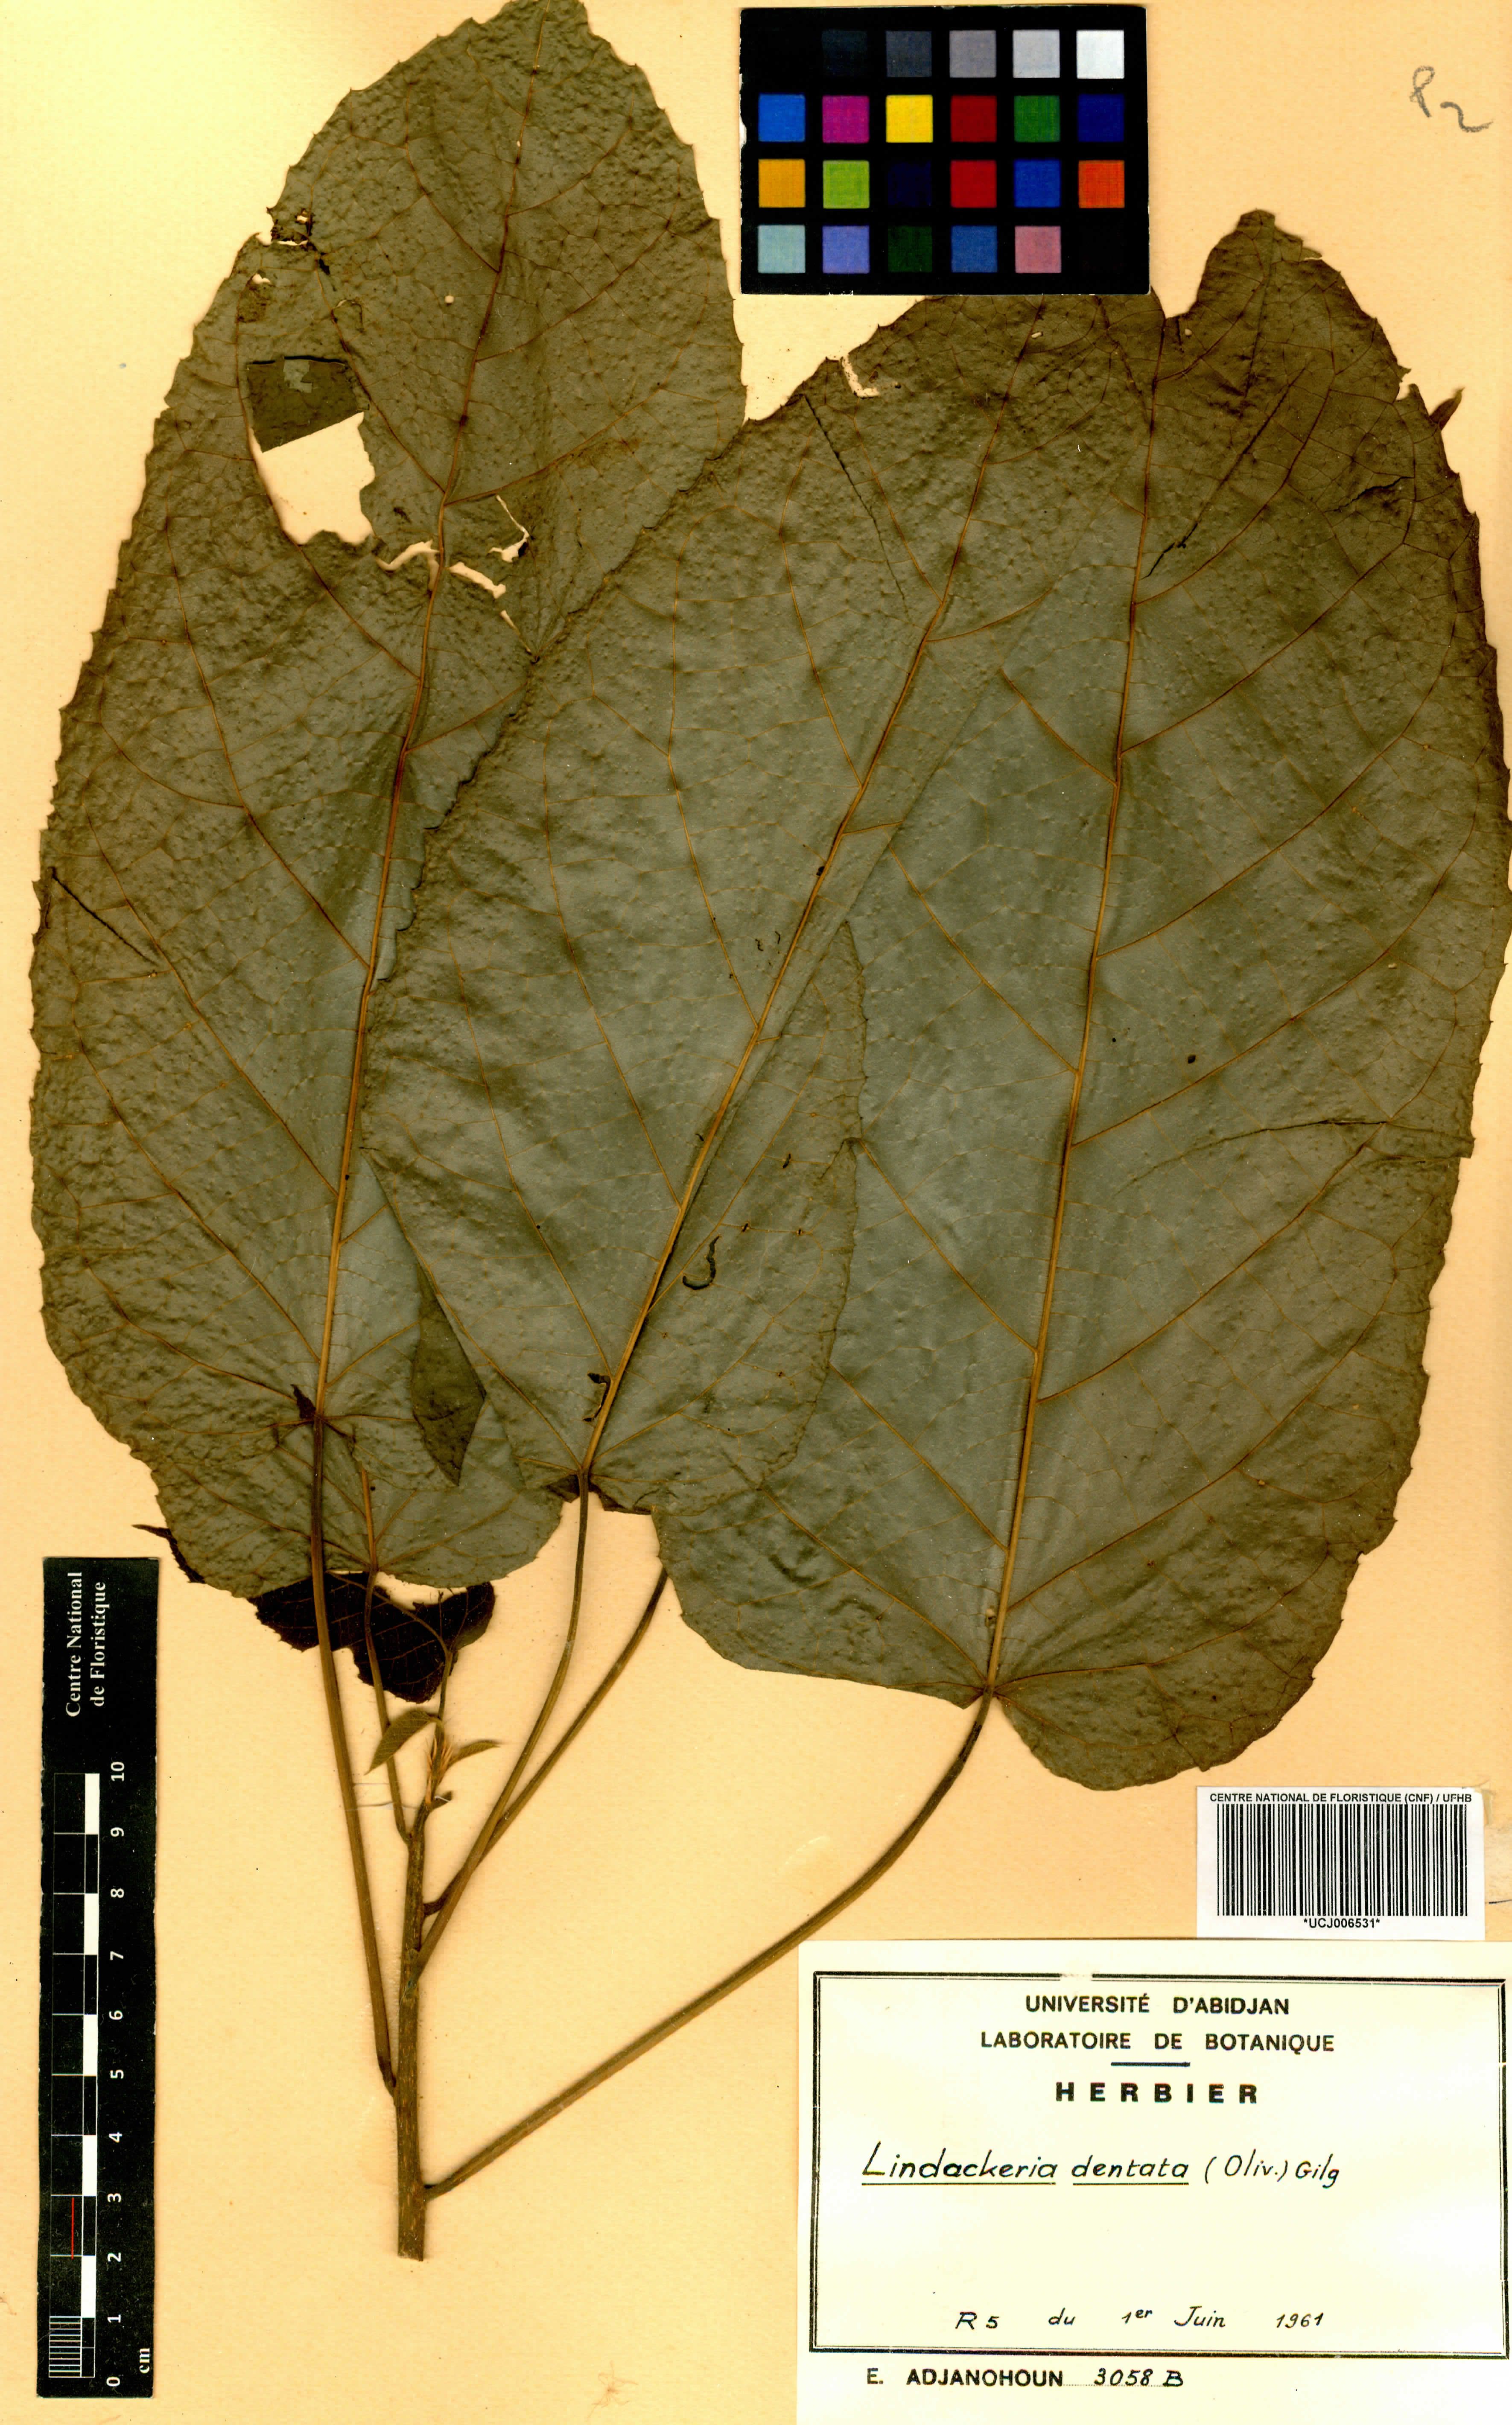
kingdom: Plantae
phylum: Tracheophyta
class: Magnoliopsida
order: Malpighiales
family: Achariaceae
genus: Lindackeria
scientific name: Lindackeria dentata
